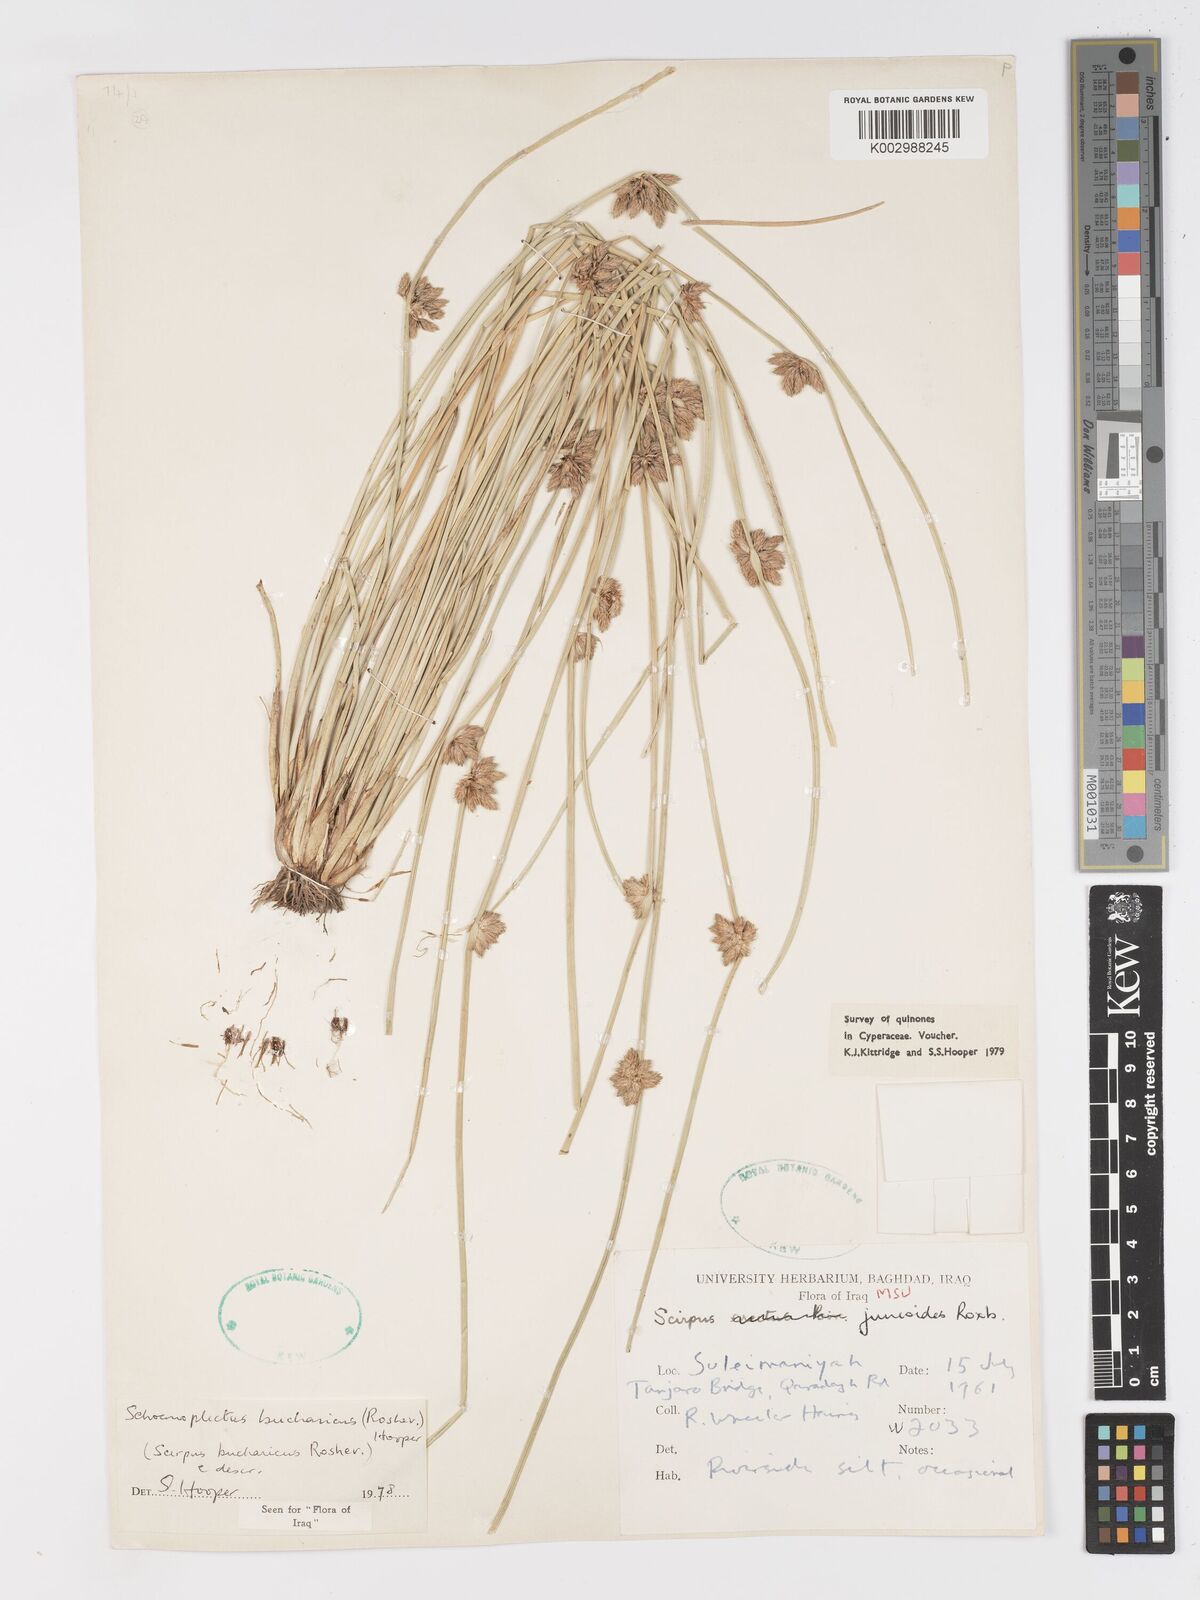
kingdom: Plantae
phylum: Tracheophyta
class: Liliopsida
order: Poales
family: Cyperaceae
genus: Schoenoplectiella
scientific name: Schoenoplectiella saximontana
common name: Rocky mountain clubrush
